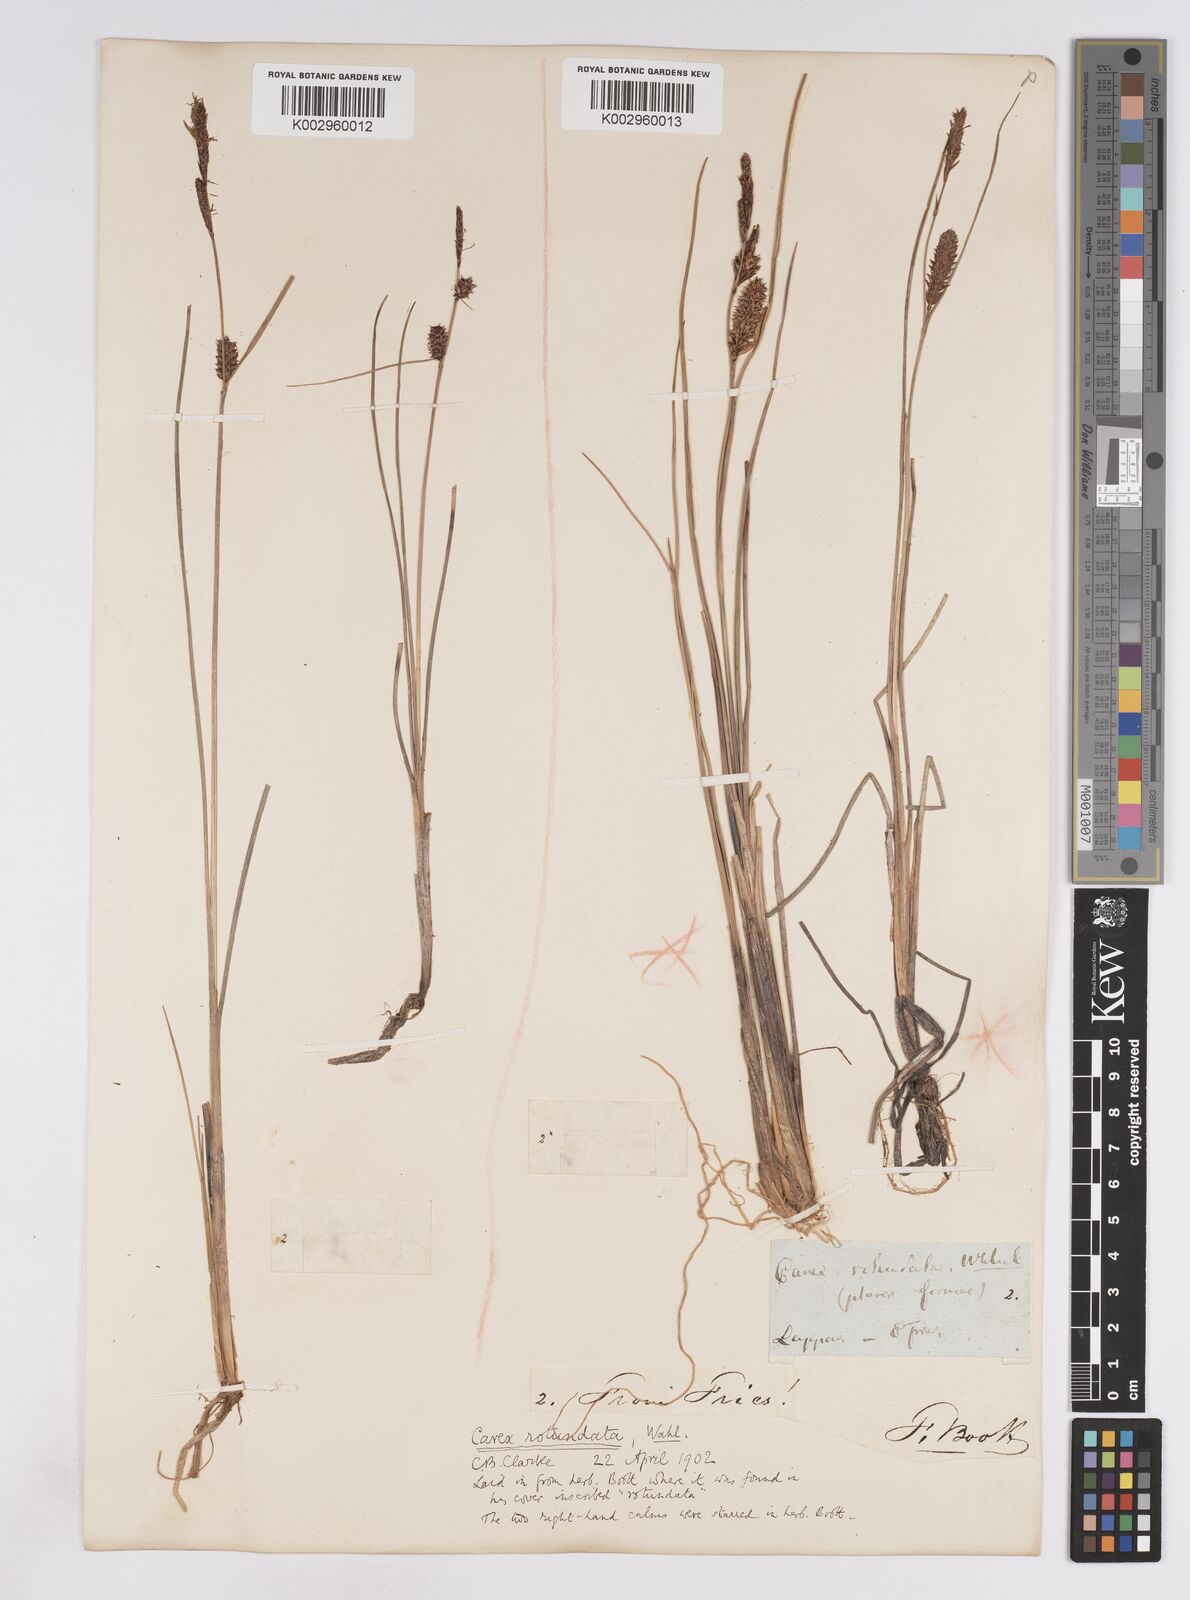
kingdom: Plantae
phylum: Tracheophyta
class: Liliopsida
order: Poales
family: Cyperaceae
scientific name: Cyperaceae
